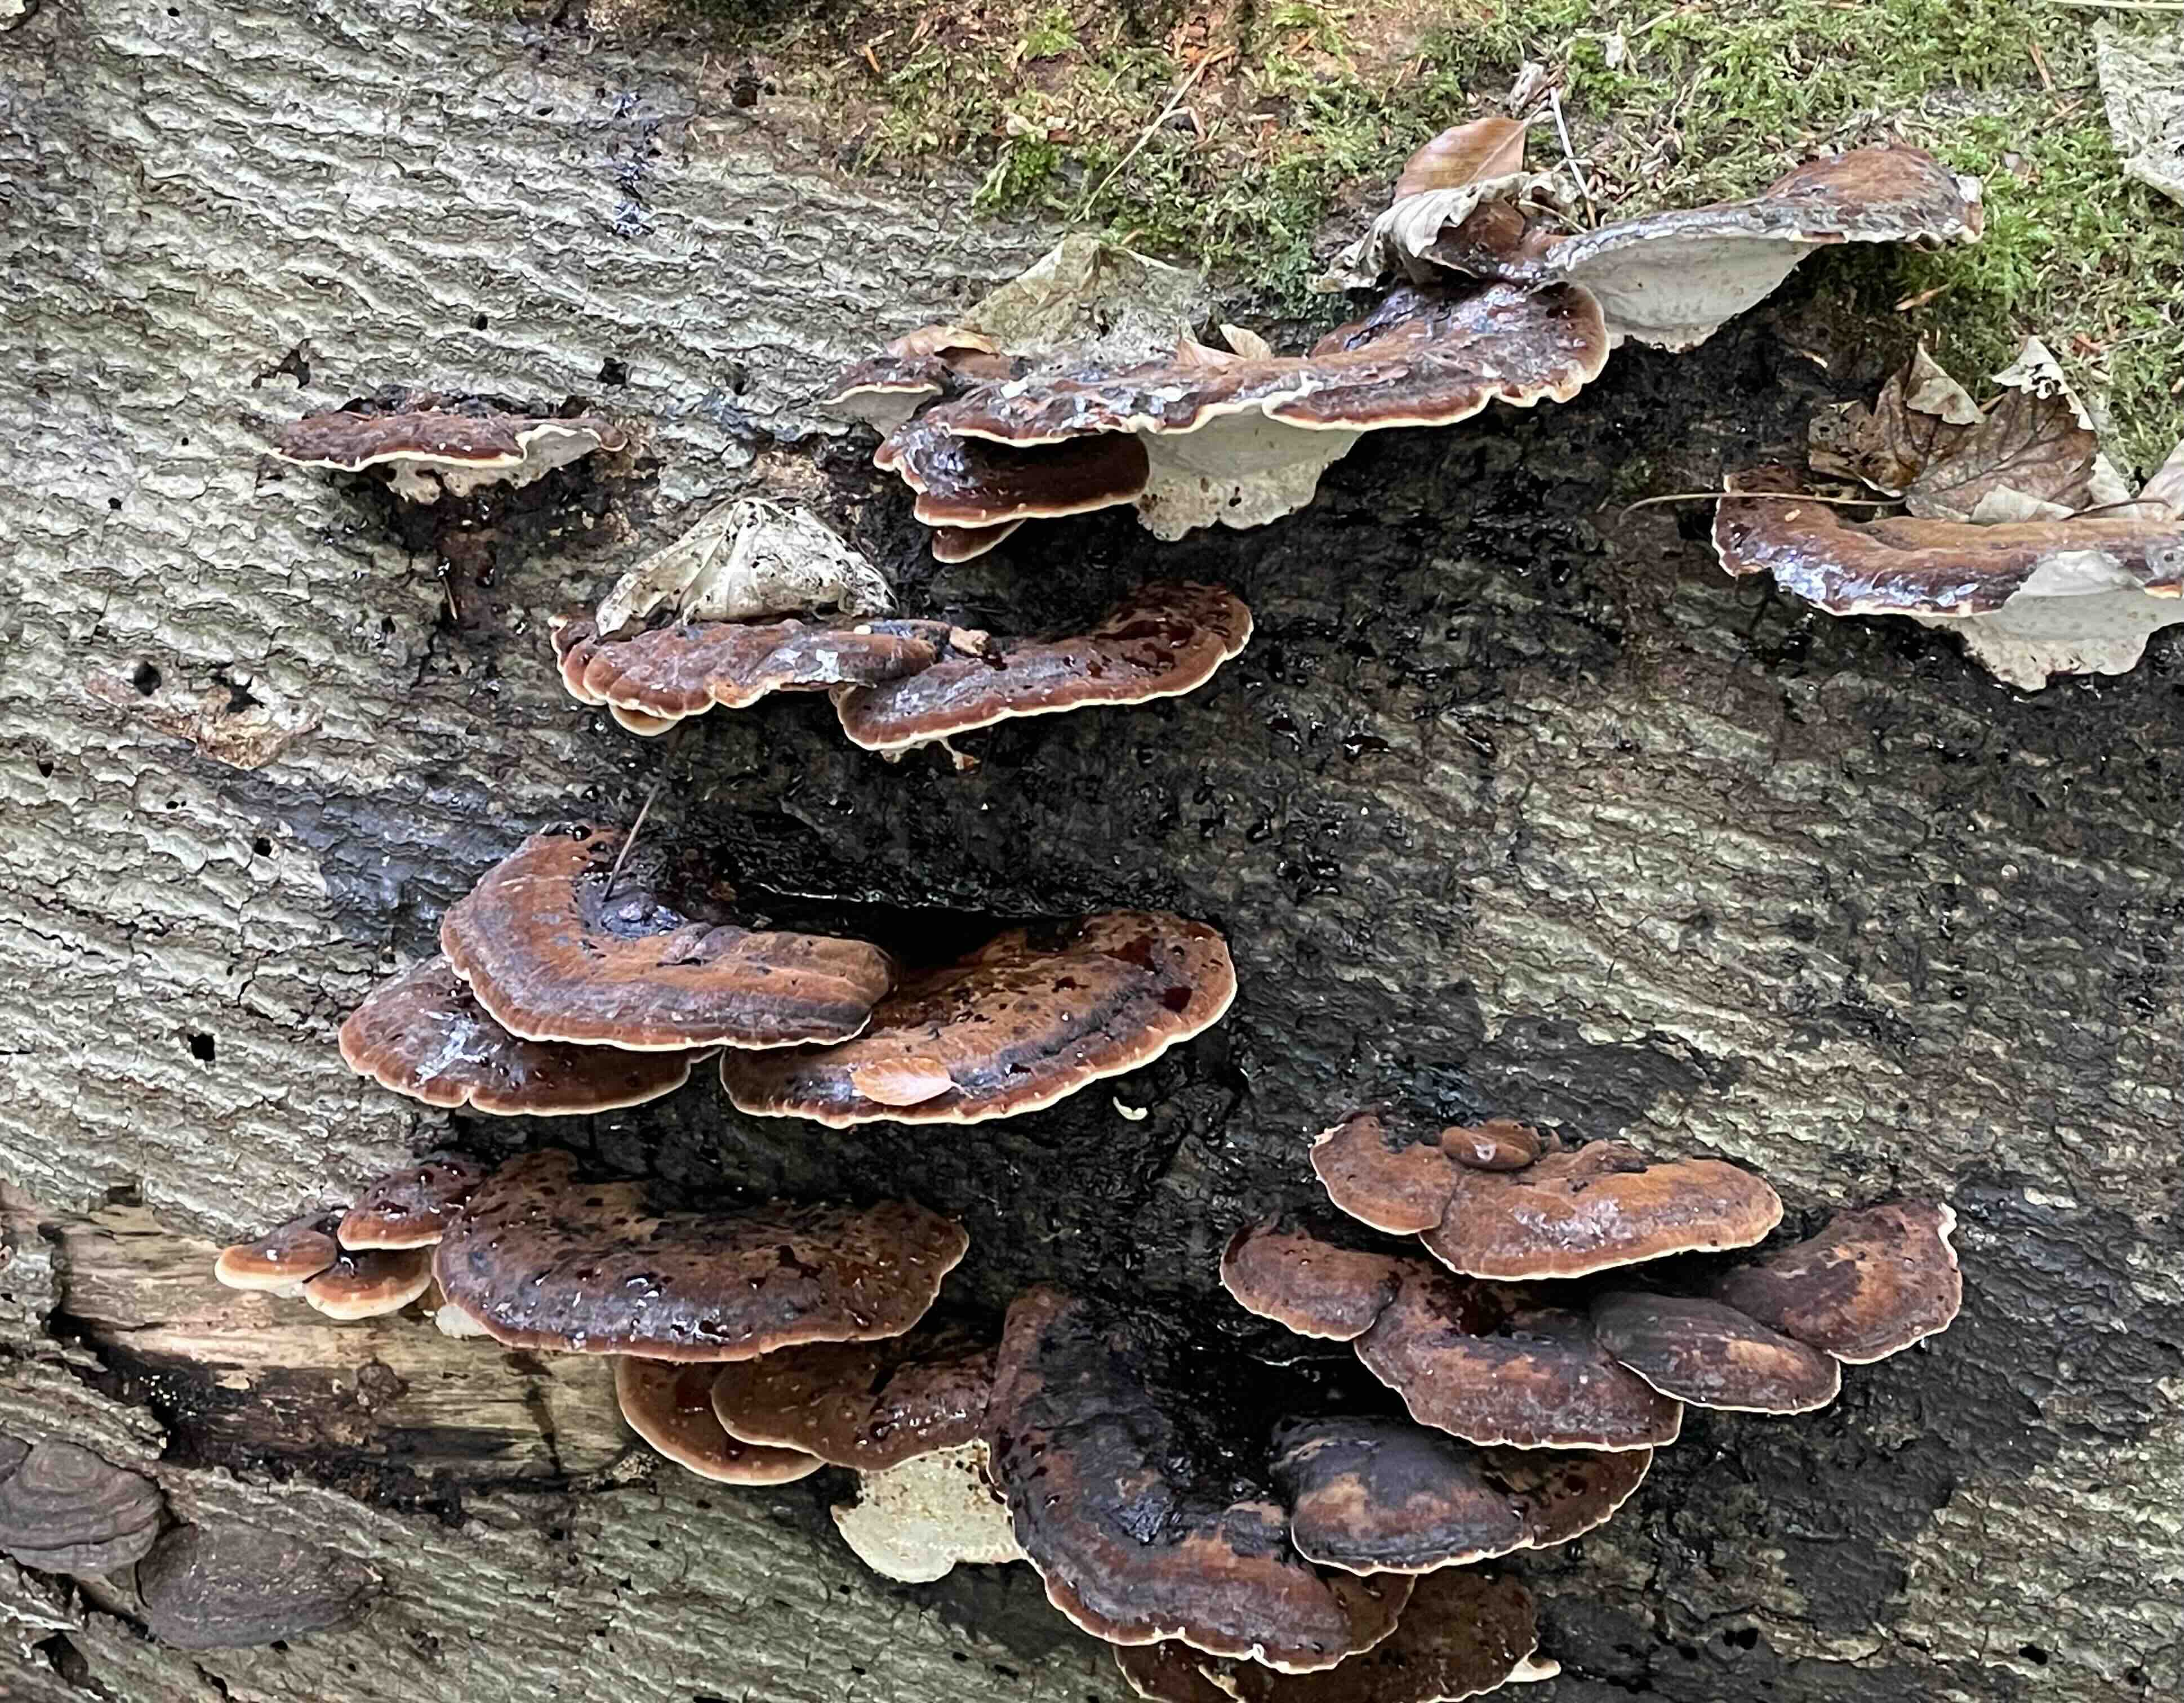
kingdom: Fungi
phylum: Basidiomycota
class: Agaricomycetes
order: Polyporales
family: Ischnodermataceae
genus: Ischnoderma
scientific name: Ischnoderma resinosum
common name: løv-tjæreporesvamp
